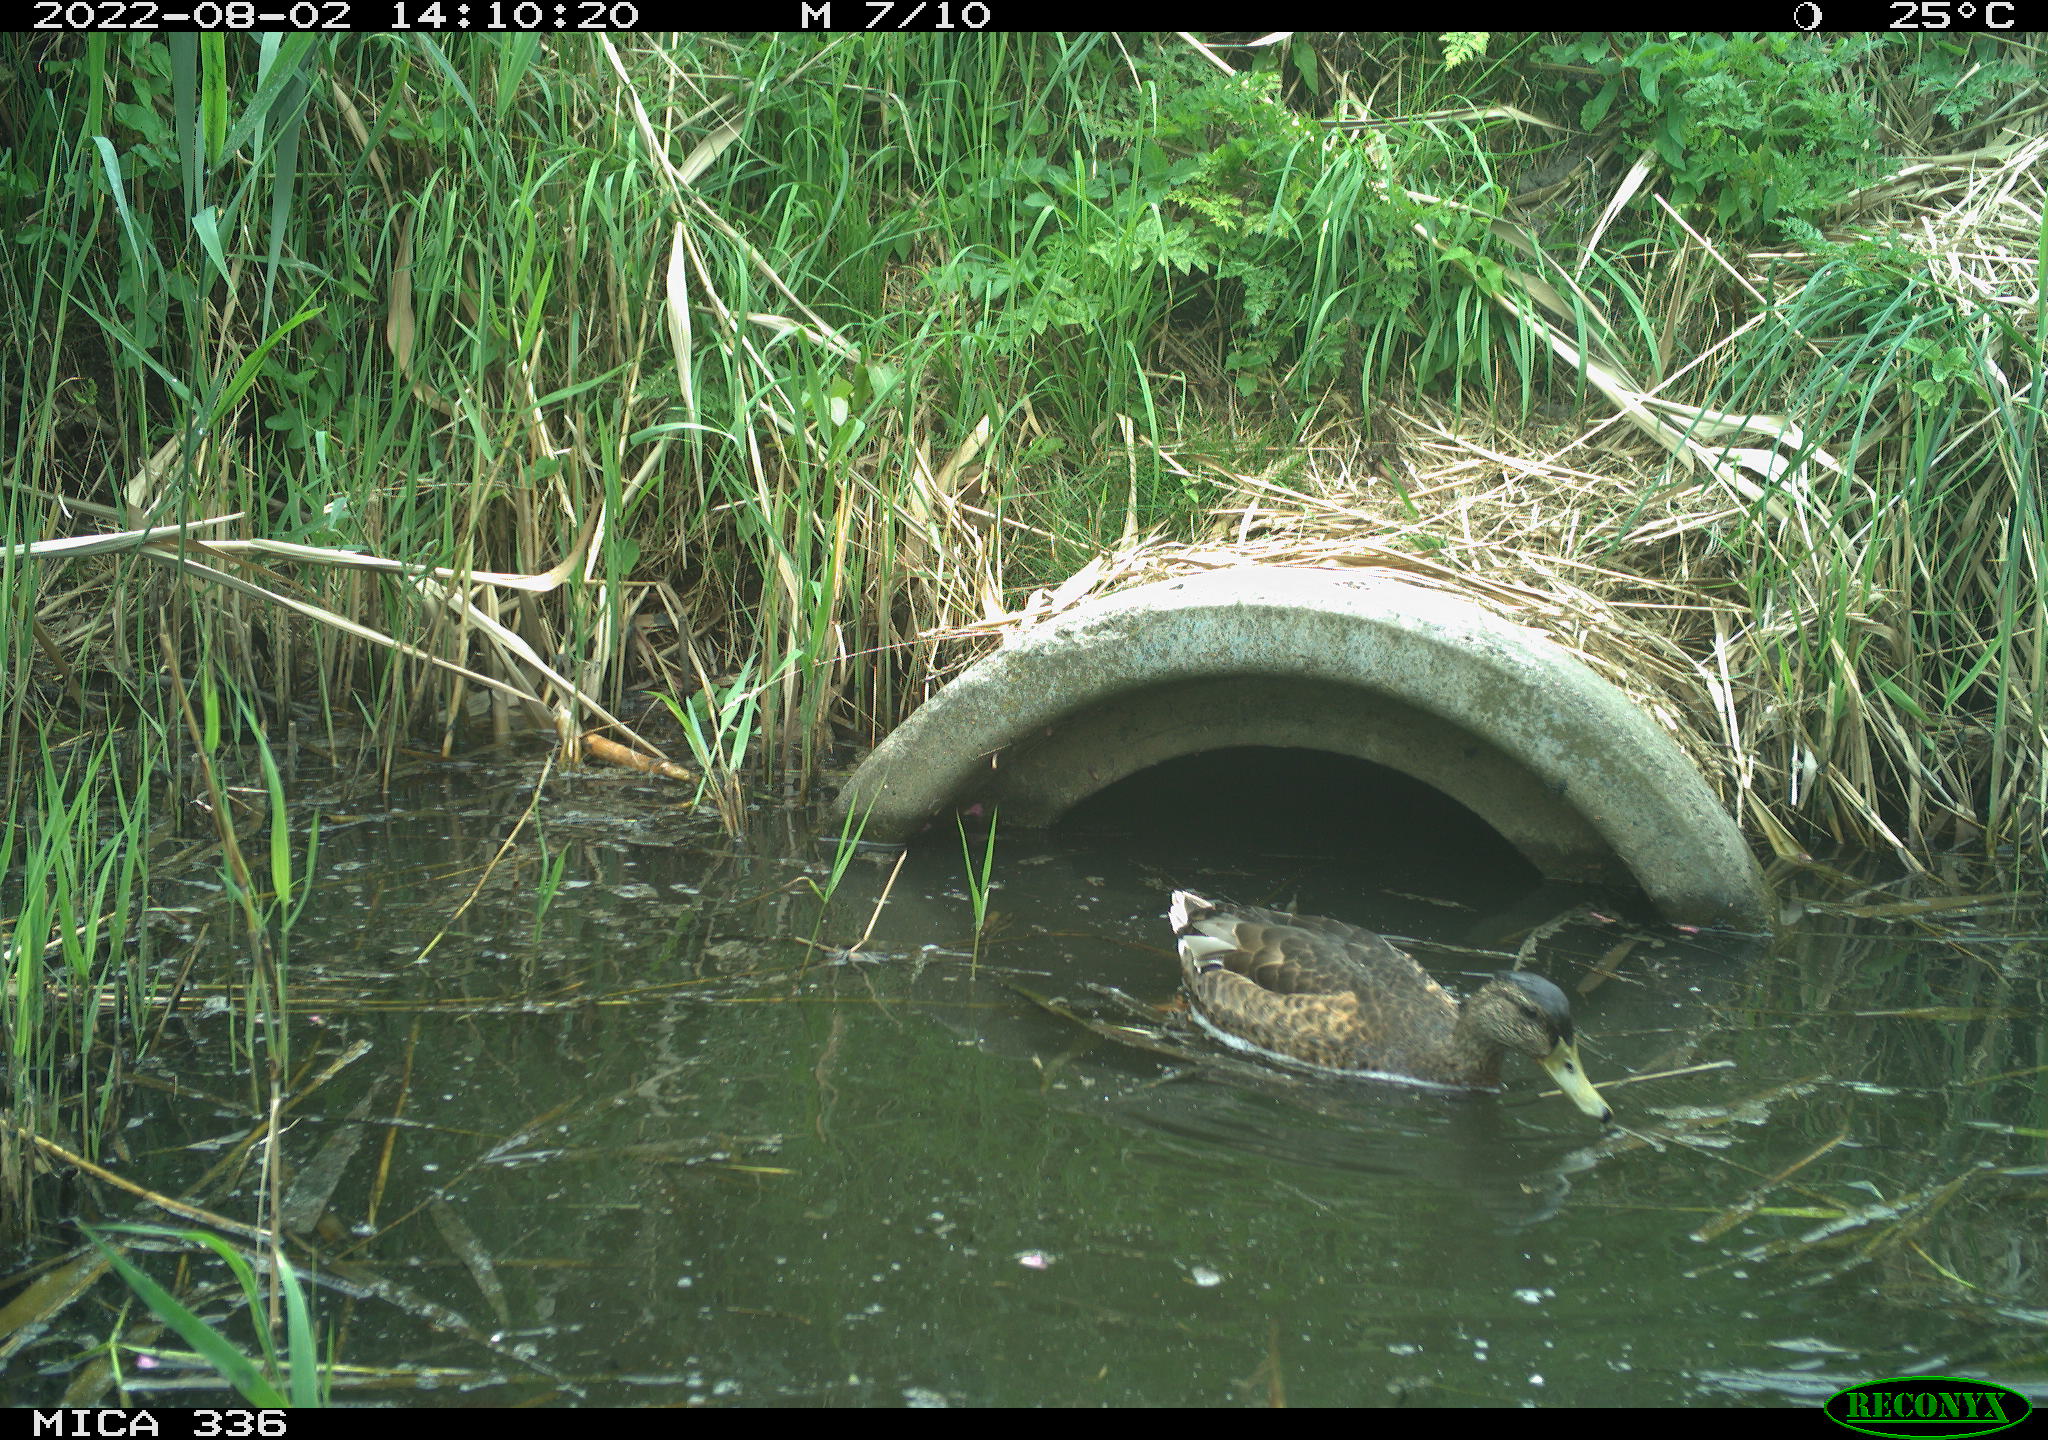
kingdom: Animalia
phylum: Chordata
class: Aves
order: Anseriformes
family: Anatidae
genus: Anas
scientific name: Anas platyrhynchos
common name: Mallard
